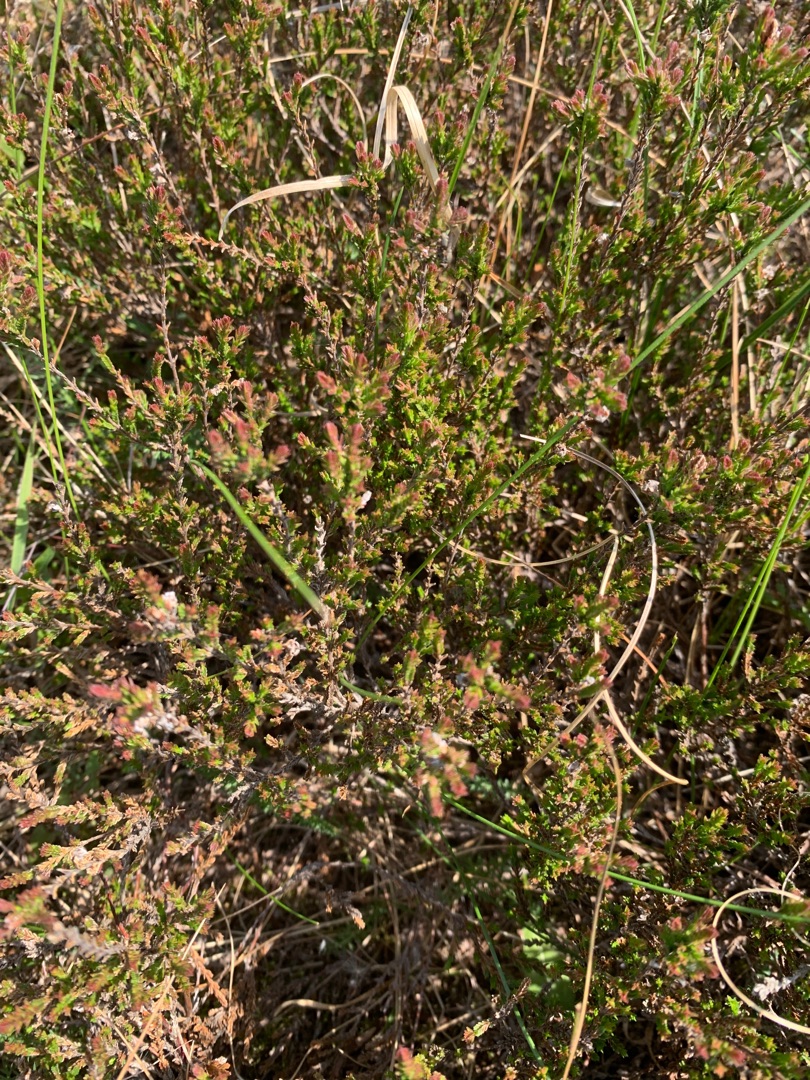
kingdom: Plantae
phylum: Tracheophyta
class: Magnoliopsida
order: Ericales
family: Ericaceae
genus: Calluna
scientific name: Calluna vulgaris
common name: Hedelyng
